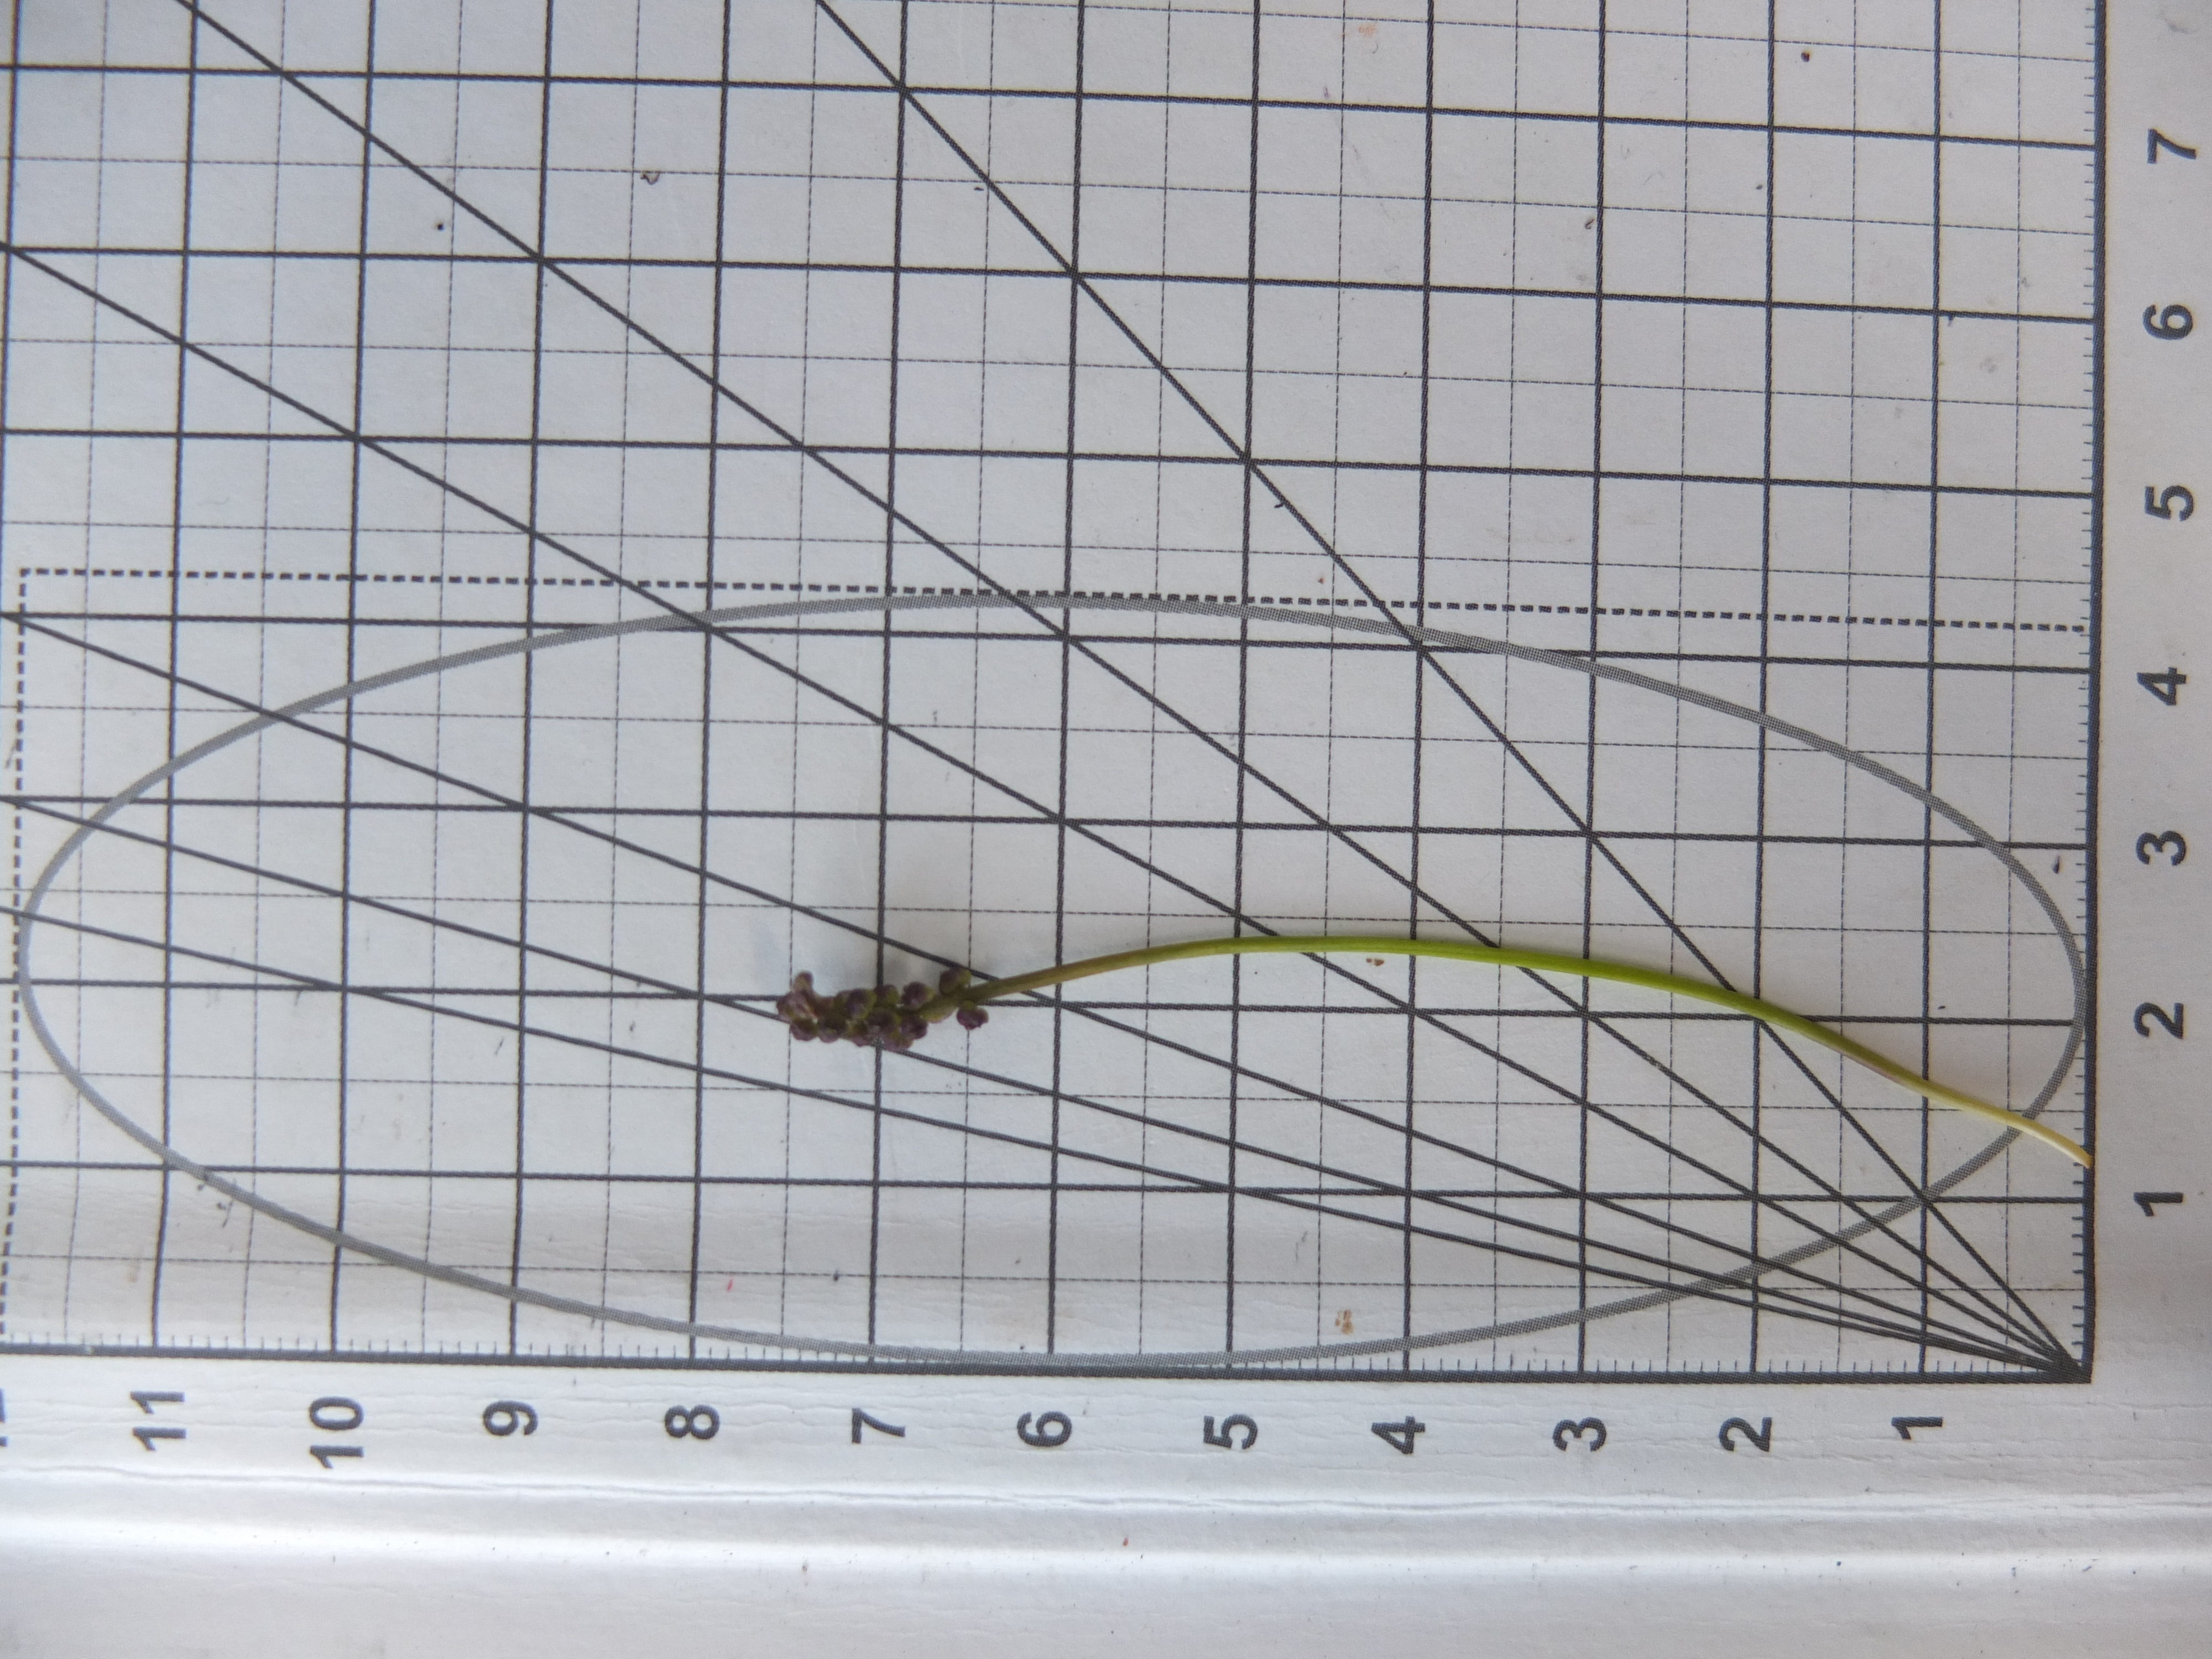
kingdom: Plantae
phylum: Tracheophyta
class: Liliopsida
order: Alismatales
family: Juncaginaceae
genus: Triglochin
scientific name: Triglochin maritima
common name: Strand-trehage
